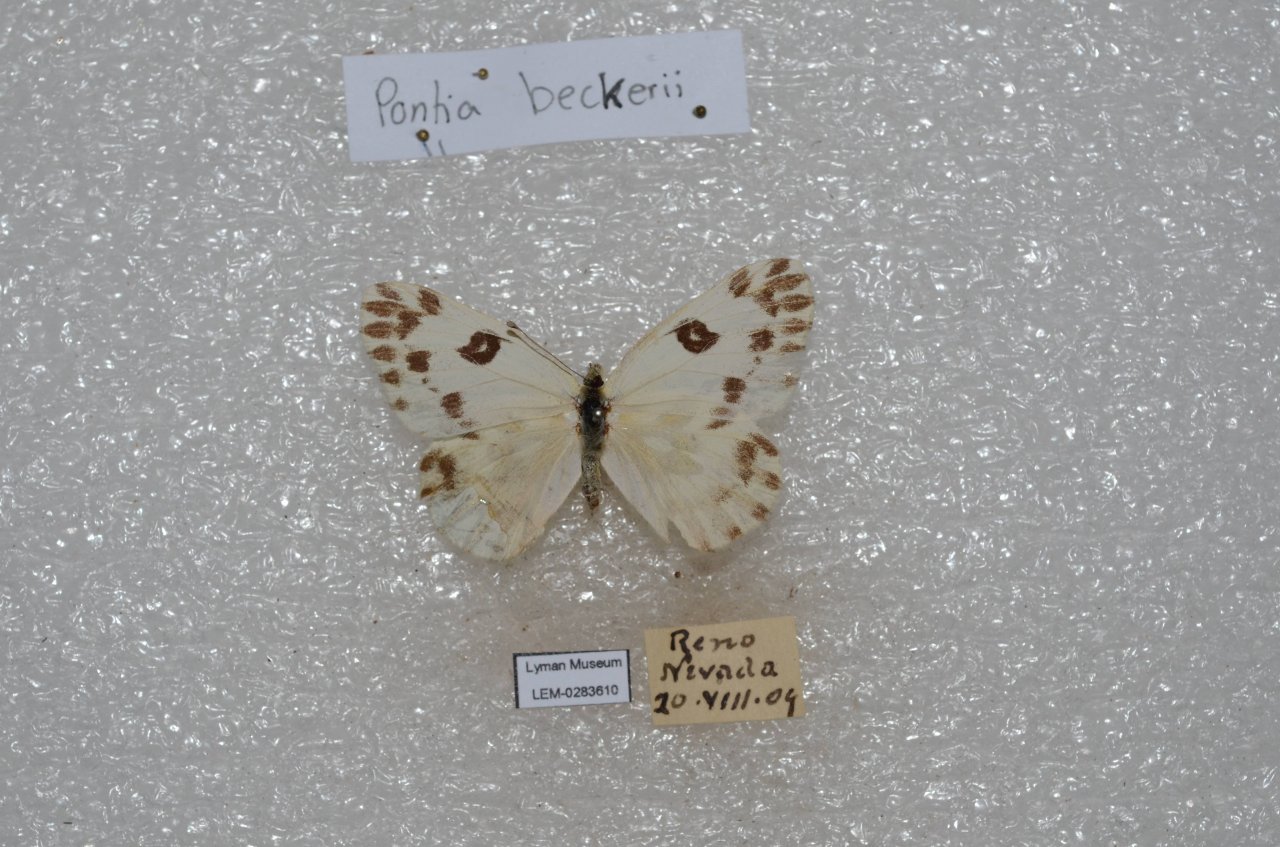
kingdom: Animalia
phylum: Arthropoda
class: Insecta
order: Lepidoptera
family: Pieridae
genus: Pontia
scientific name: Pontia beckerii
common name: Becker's White
